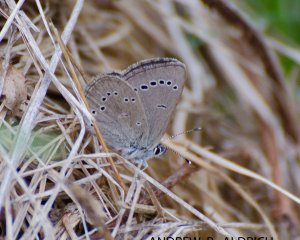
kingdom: Animalia
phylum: Arthropoda
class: Insecta
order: Lepidoptera
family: Lycaenidae
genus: Glaucopsyche
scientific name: Glaucopsyche lygdamus
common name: Silvery Blue
